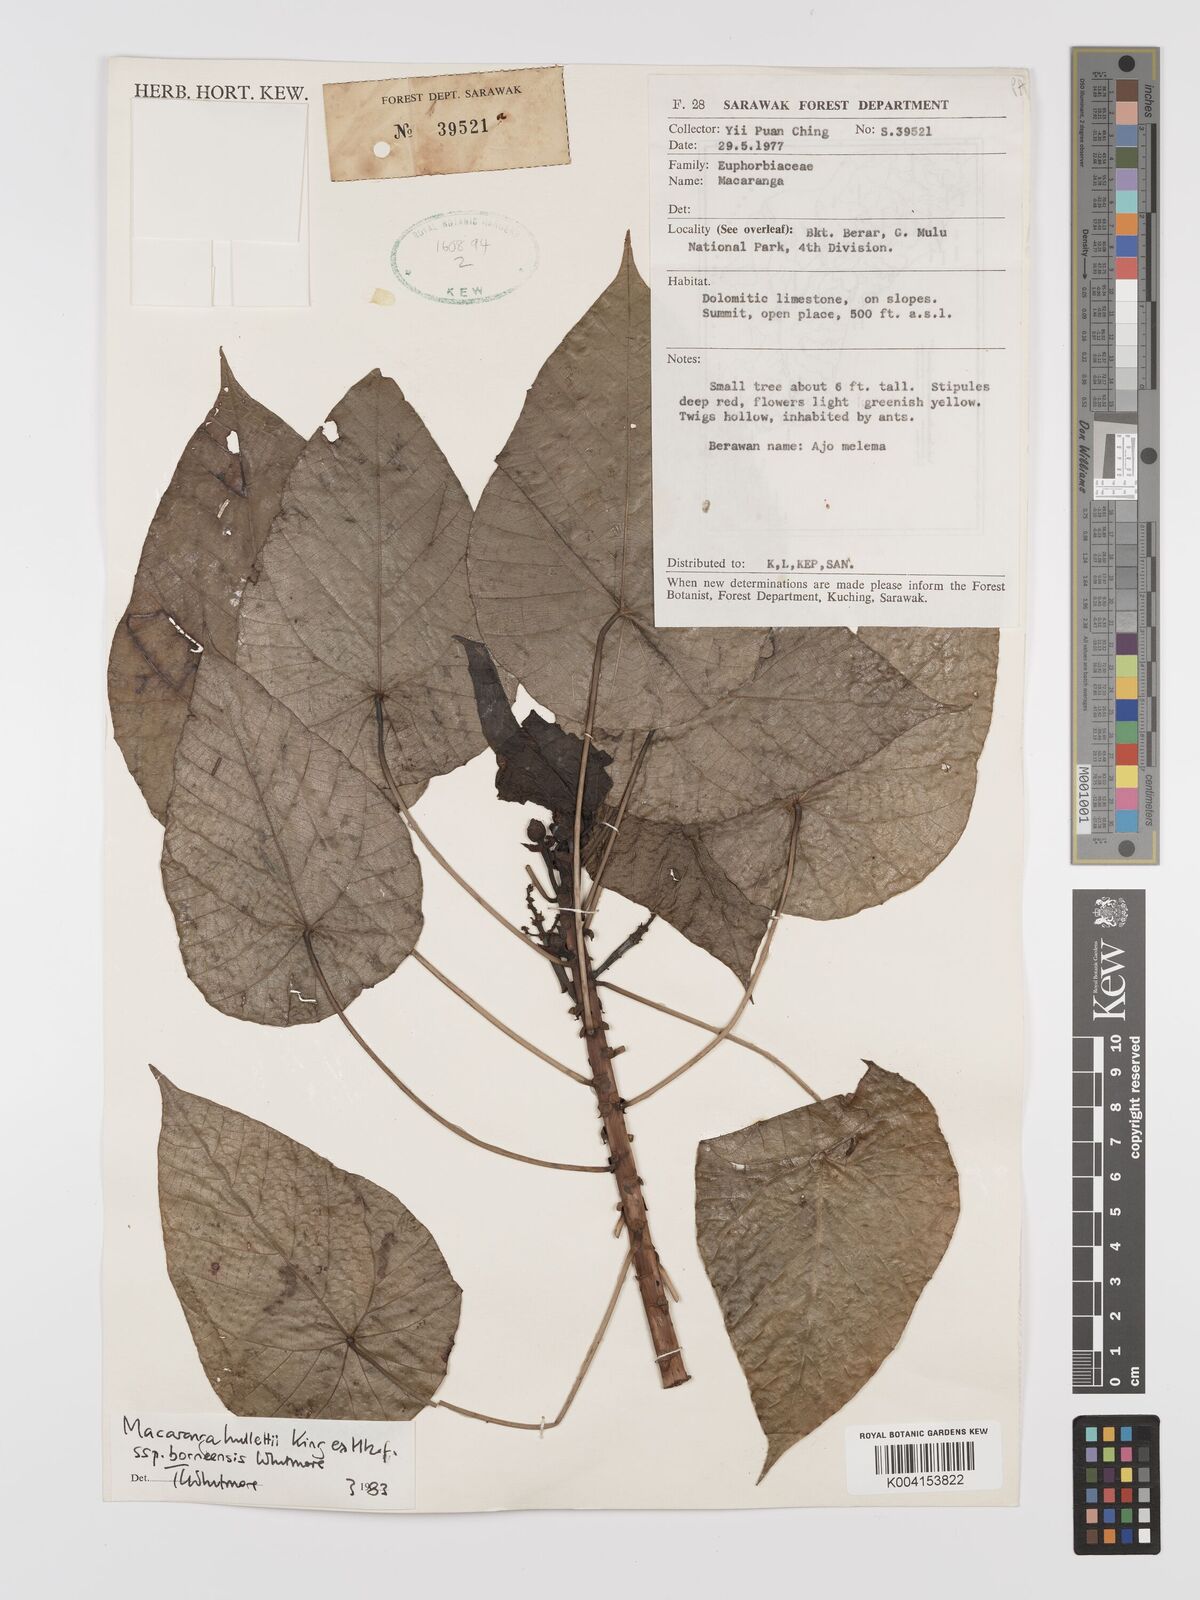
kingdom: Plantae
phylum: Tracheophyta
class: Magnoliopsida
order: Malpighiales
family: Euphorbiaceae
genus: Macaranga
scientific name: Macaranga hullettii
